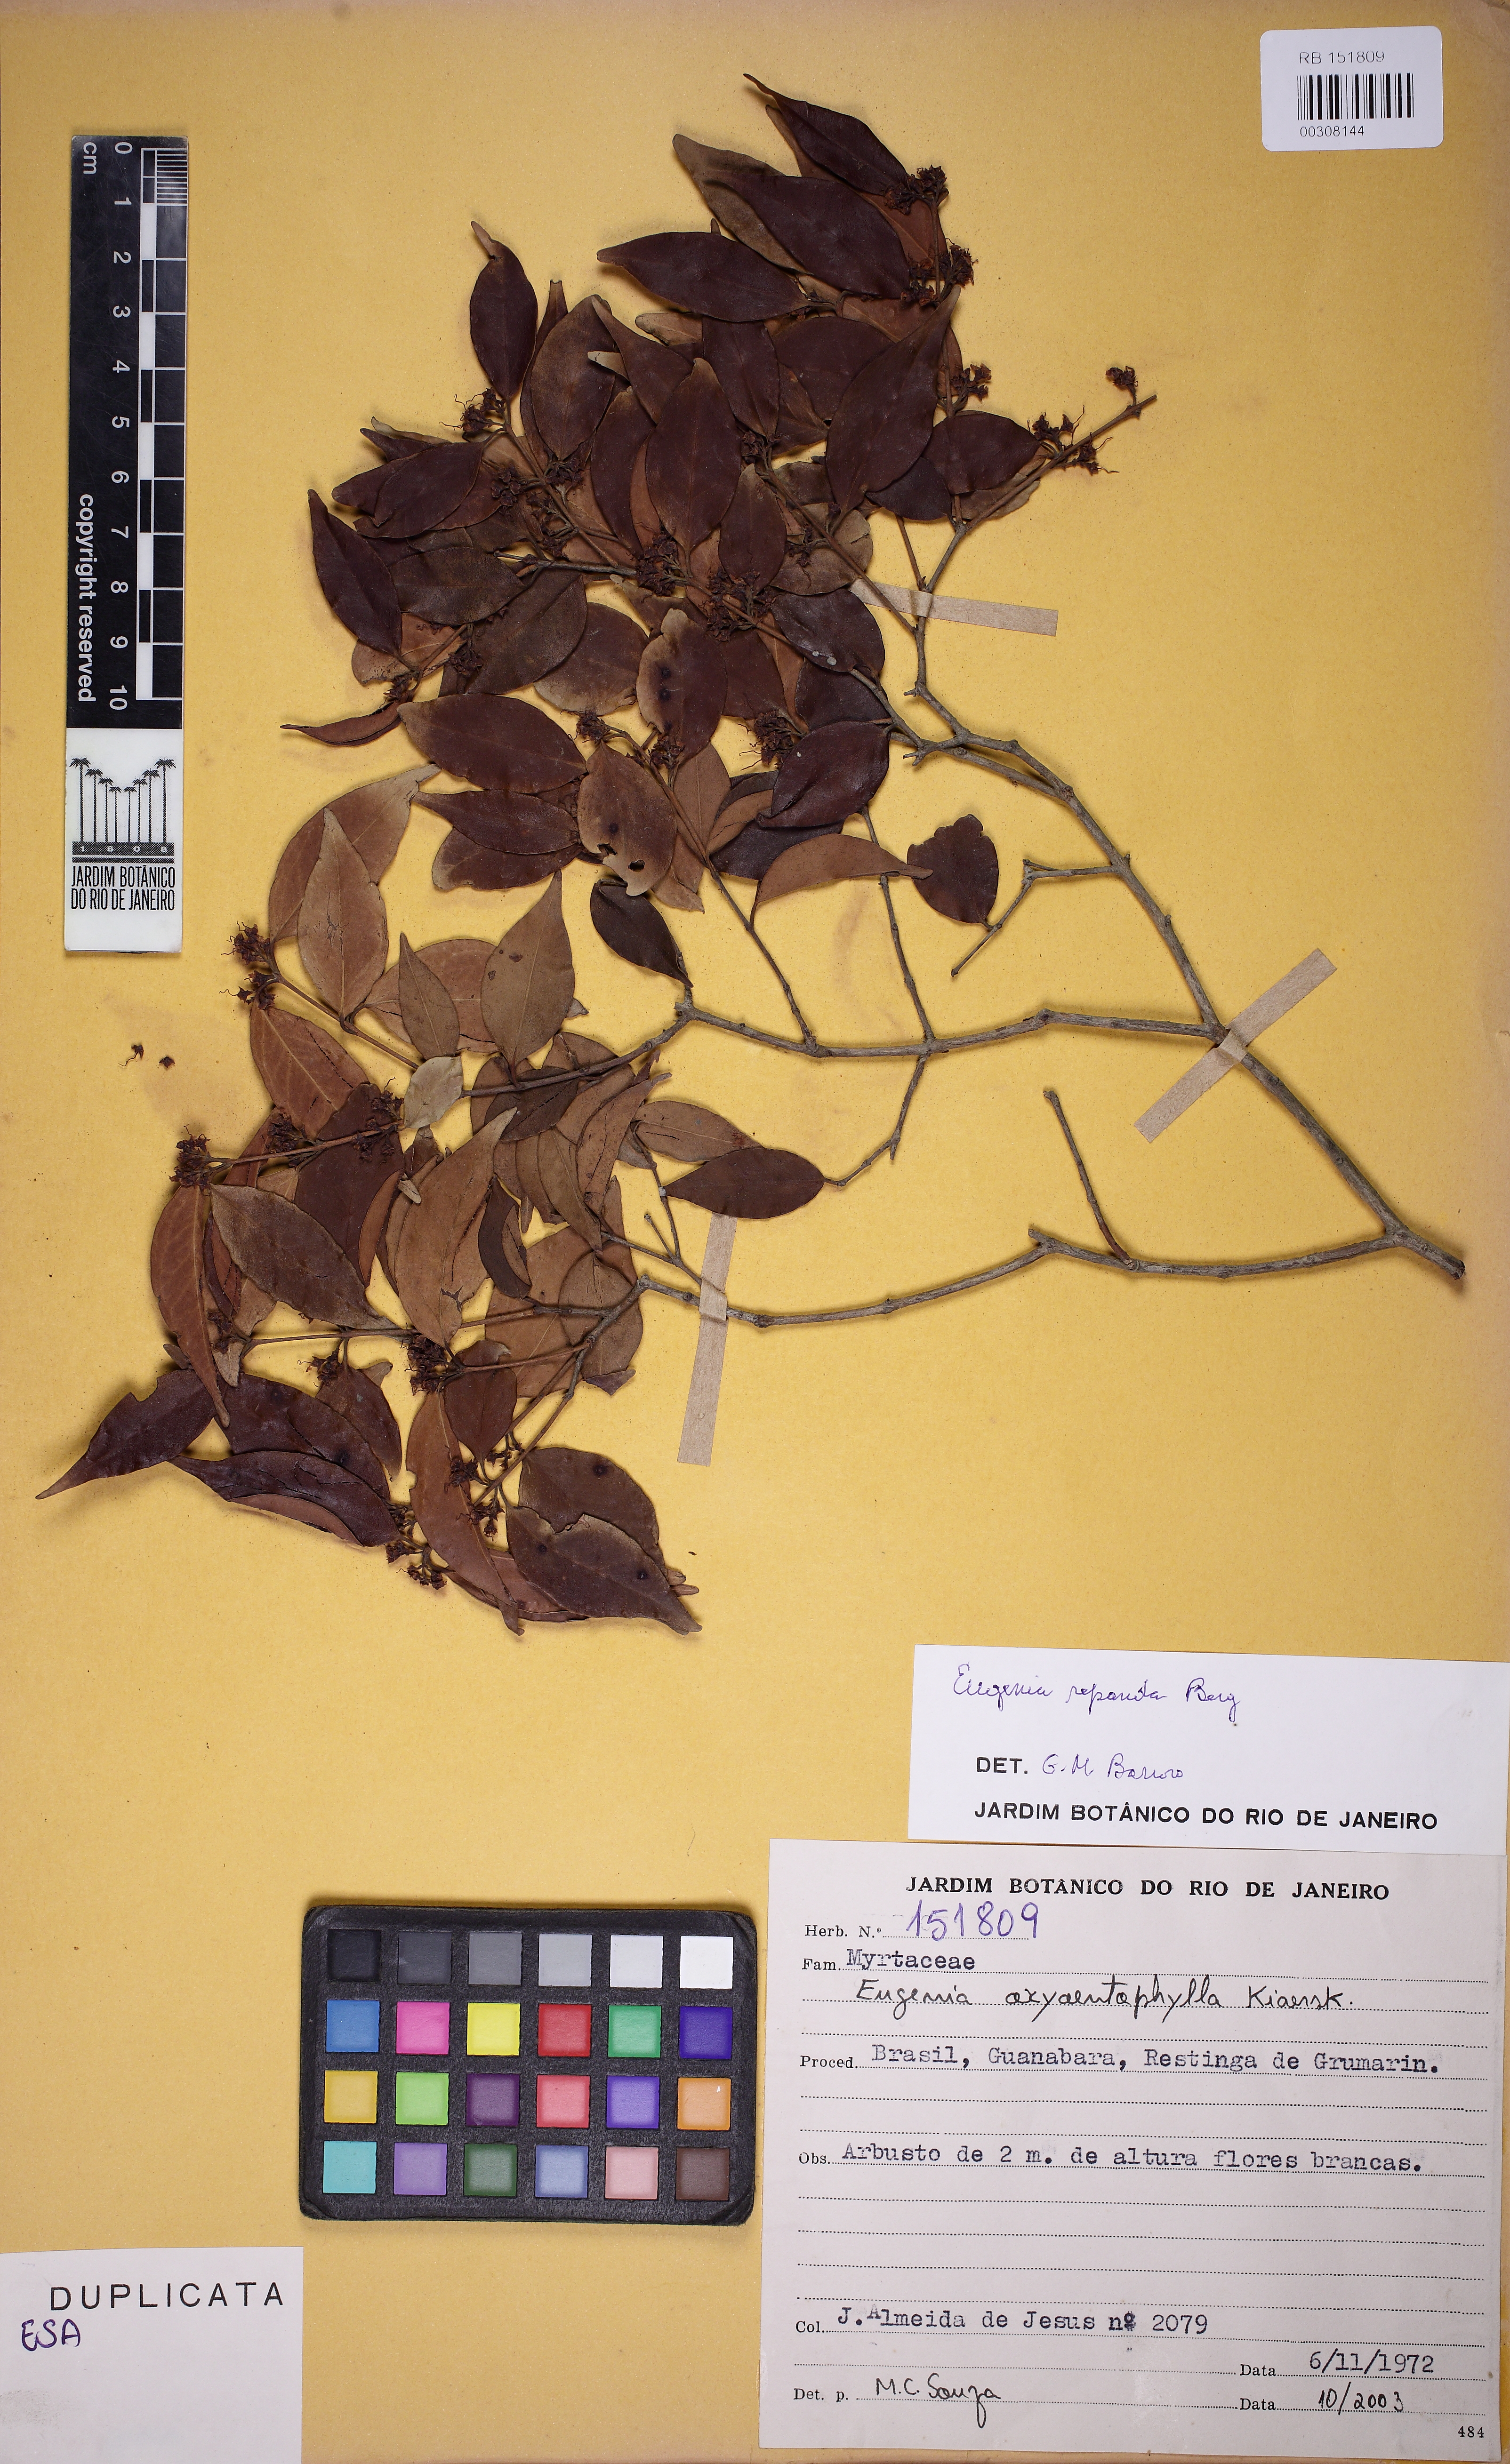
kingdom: Plantae
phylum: Tracheophyta
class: Magnoliopsida
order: Myrtales
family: Myrtaceae
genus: Eugenia
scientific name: Eugenia oxyoentophylla
